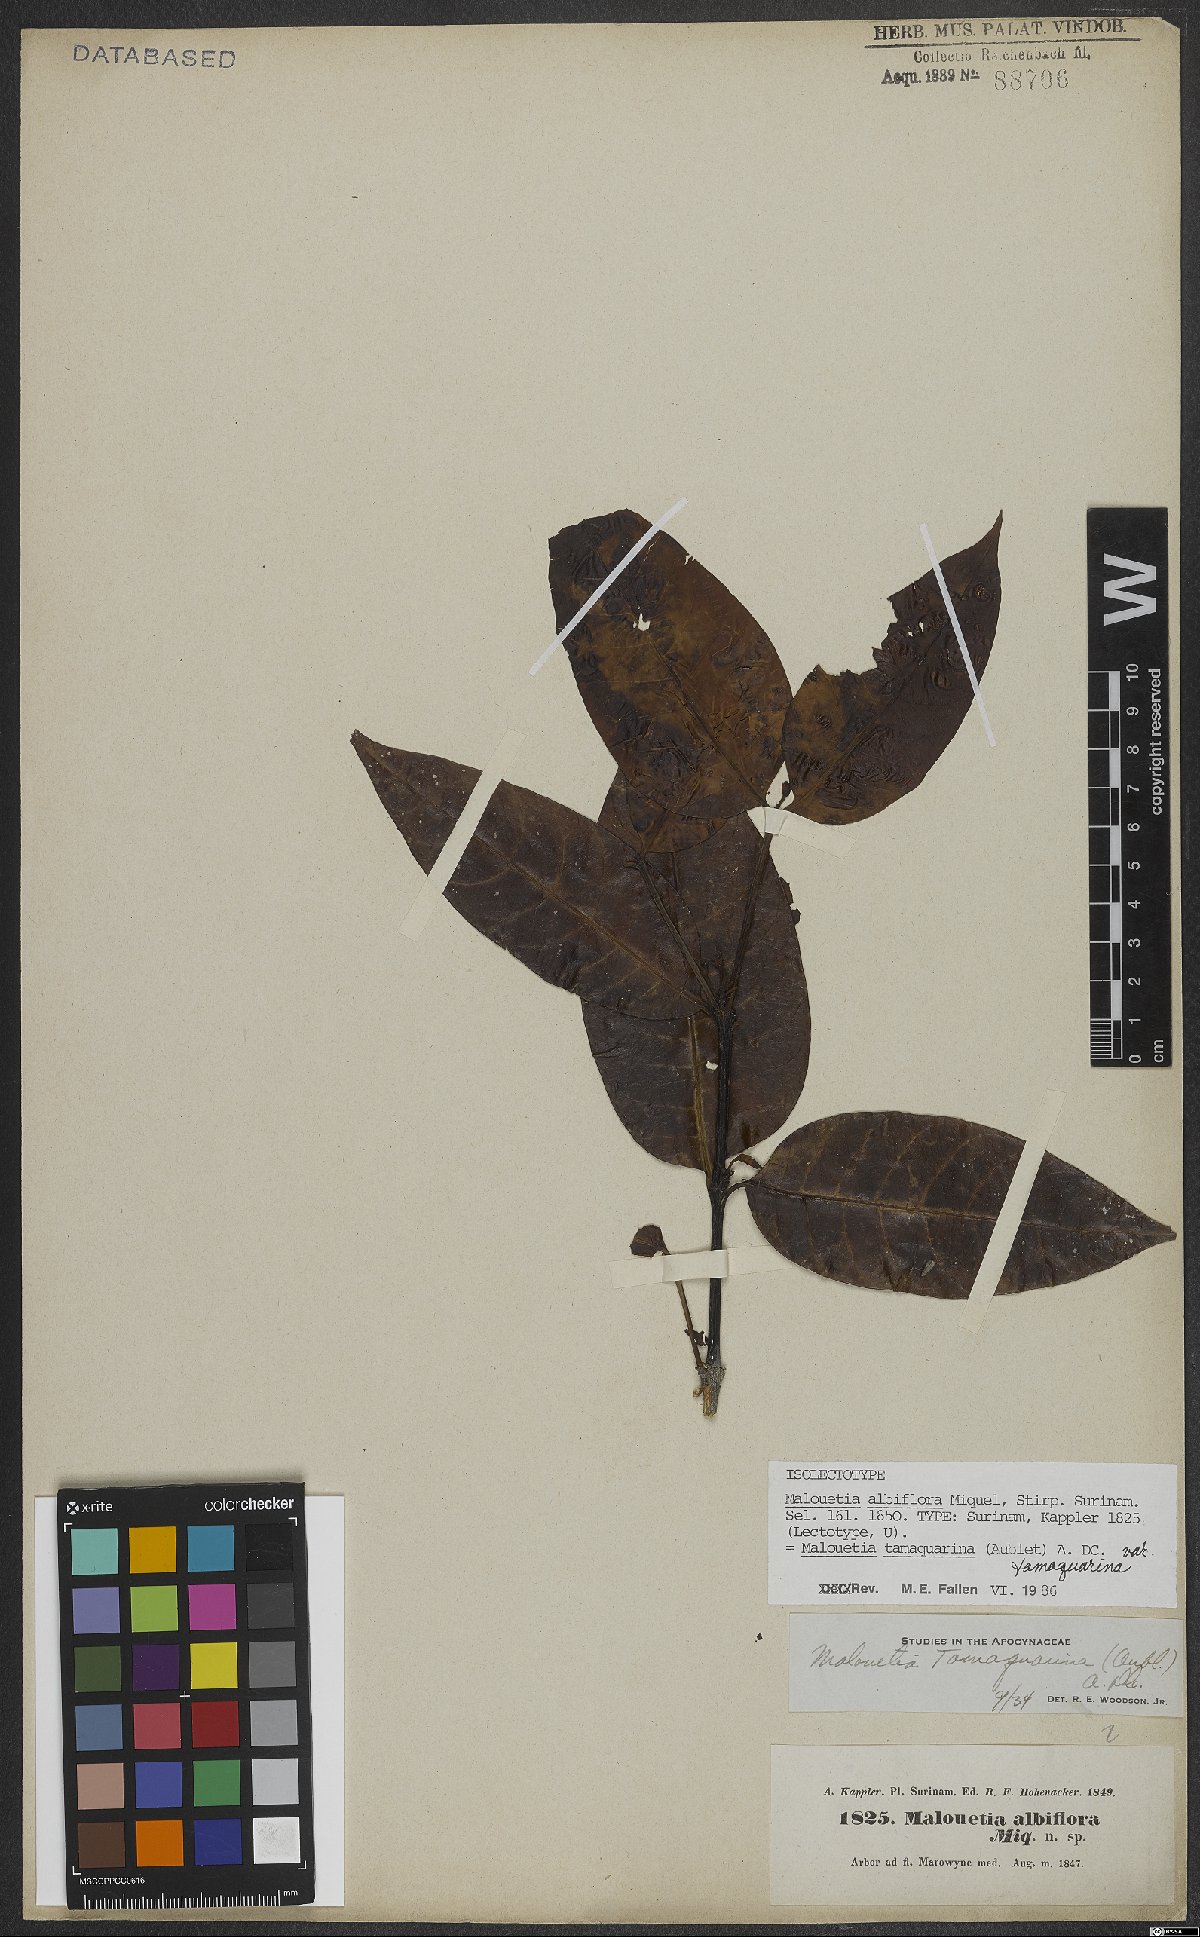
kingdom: Plantae
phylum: Tracheophyta
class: Magnoliopsida
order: Gentianales
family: Apocynaceae
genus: Malouetia
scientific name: Malouetia tamaquarina
